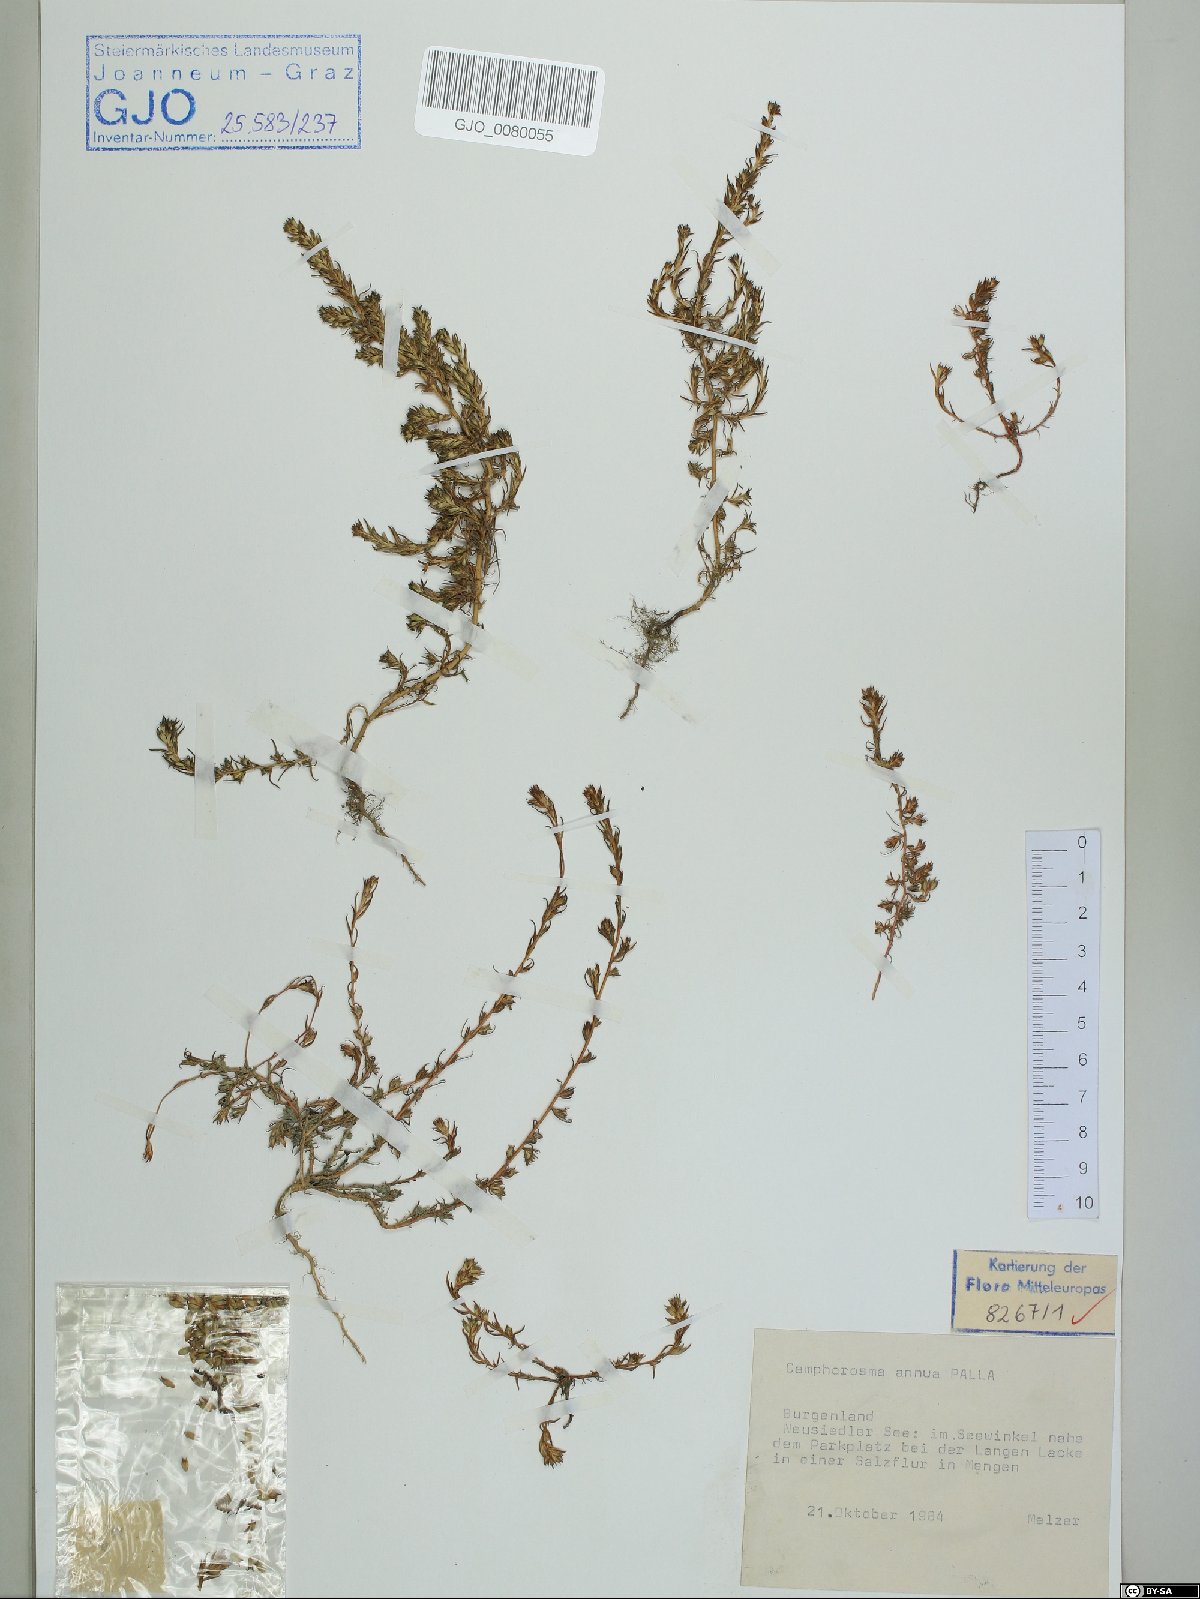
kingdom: Plantae
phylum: Tracheophyta
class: Magnoliopsida
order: Caryophyllales
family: Amaranthaceae
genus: Camphorosma
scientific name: Camphorosma annua
